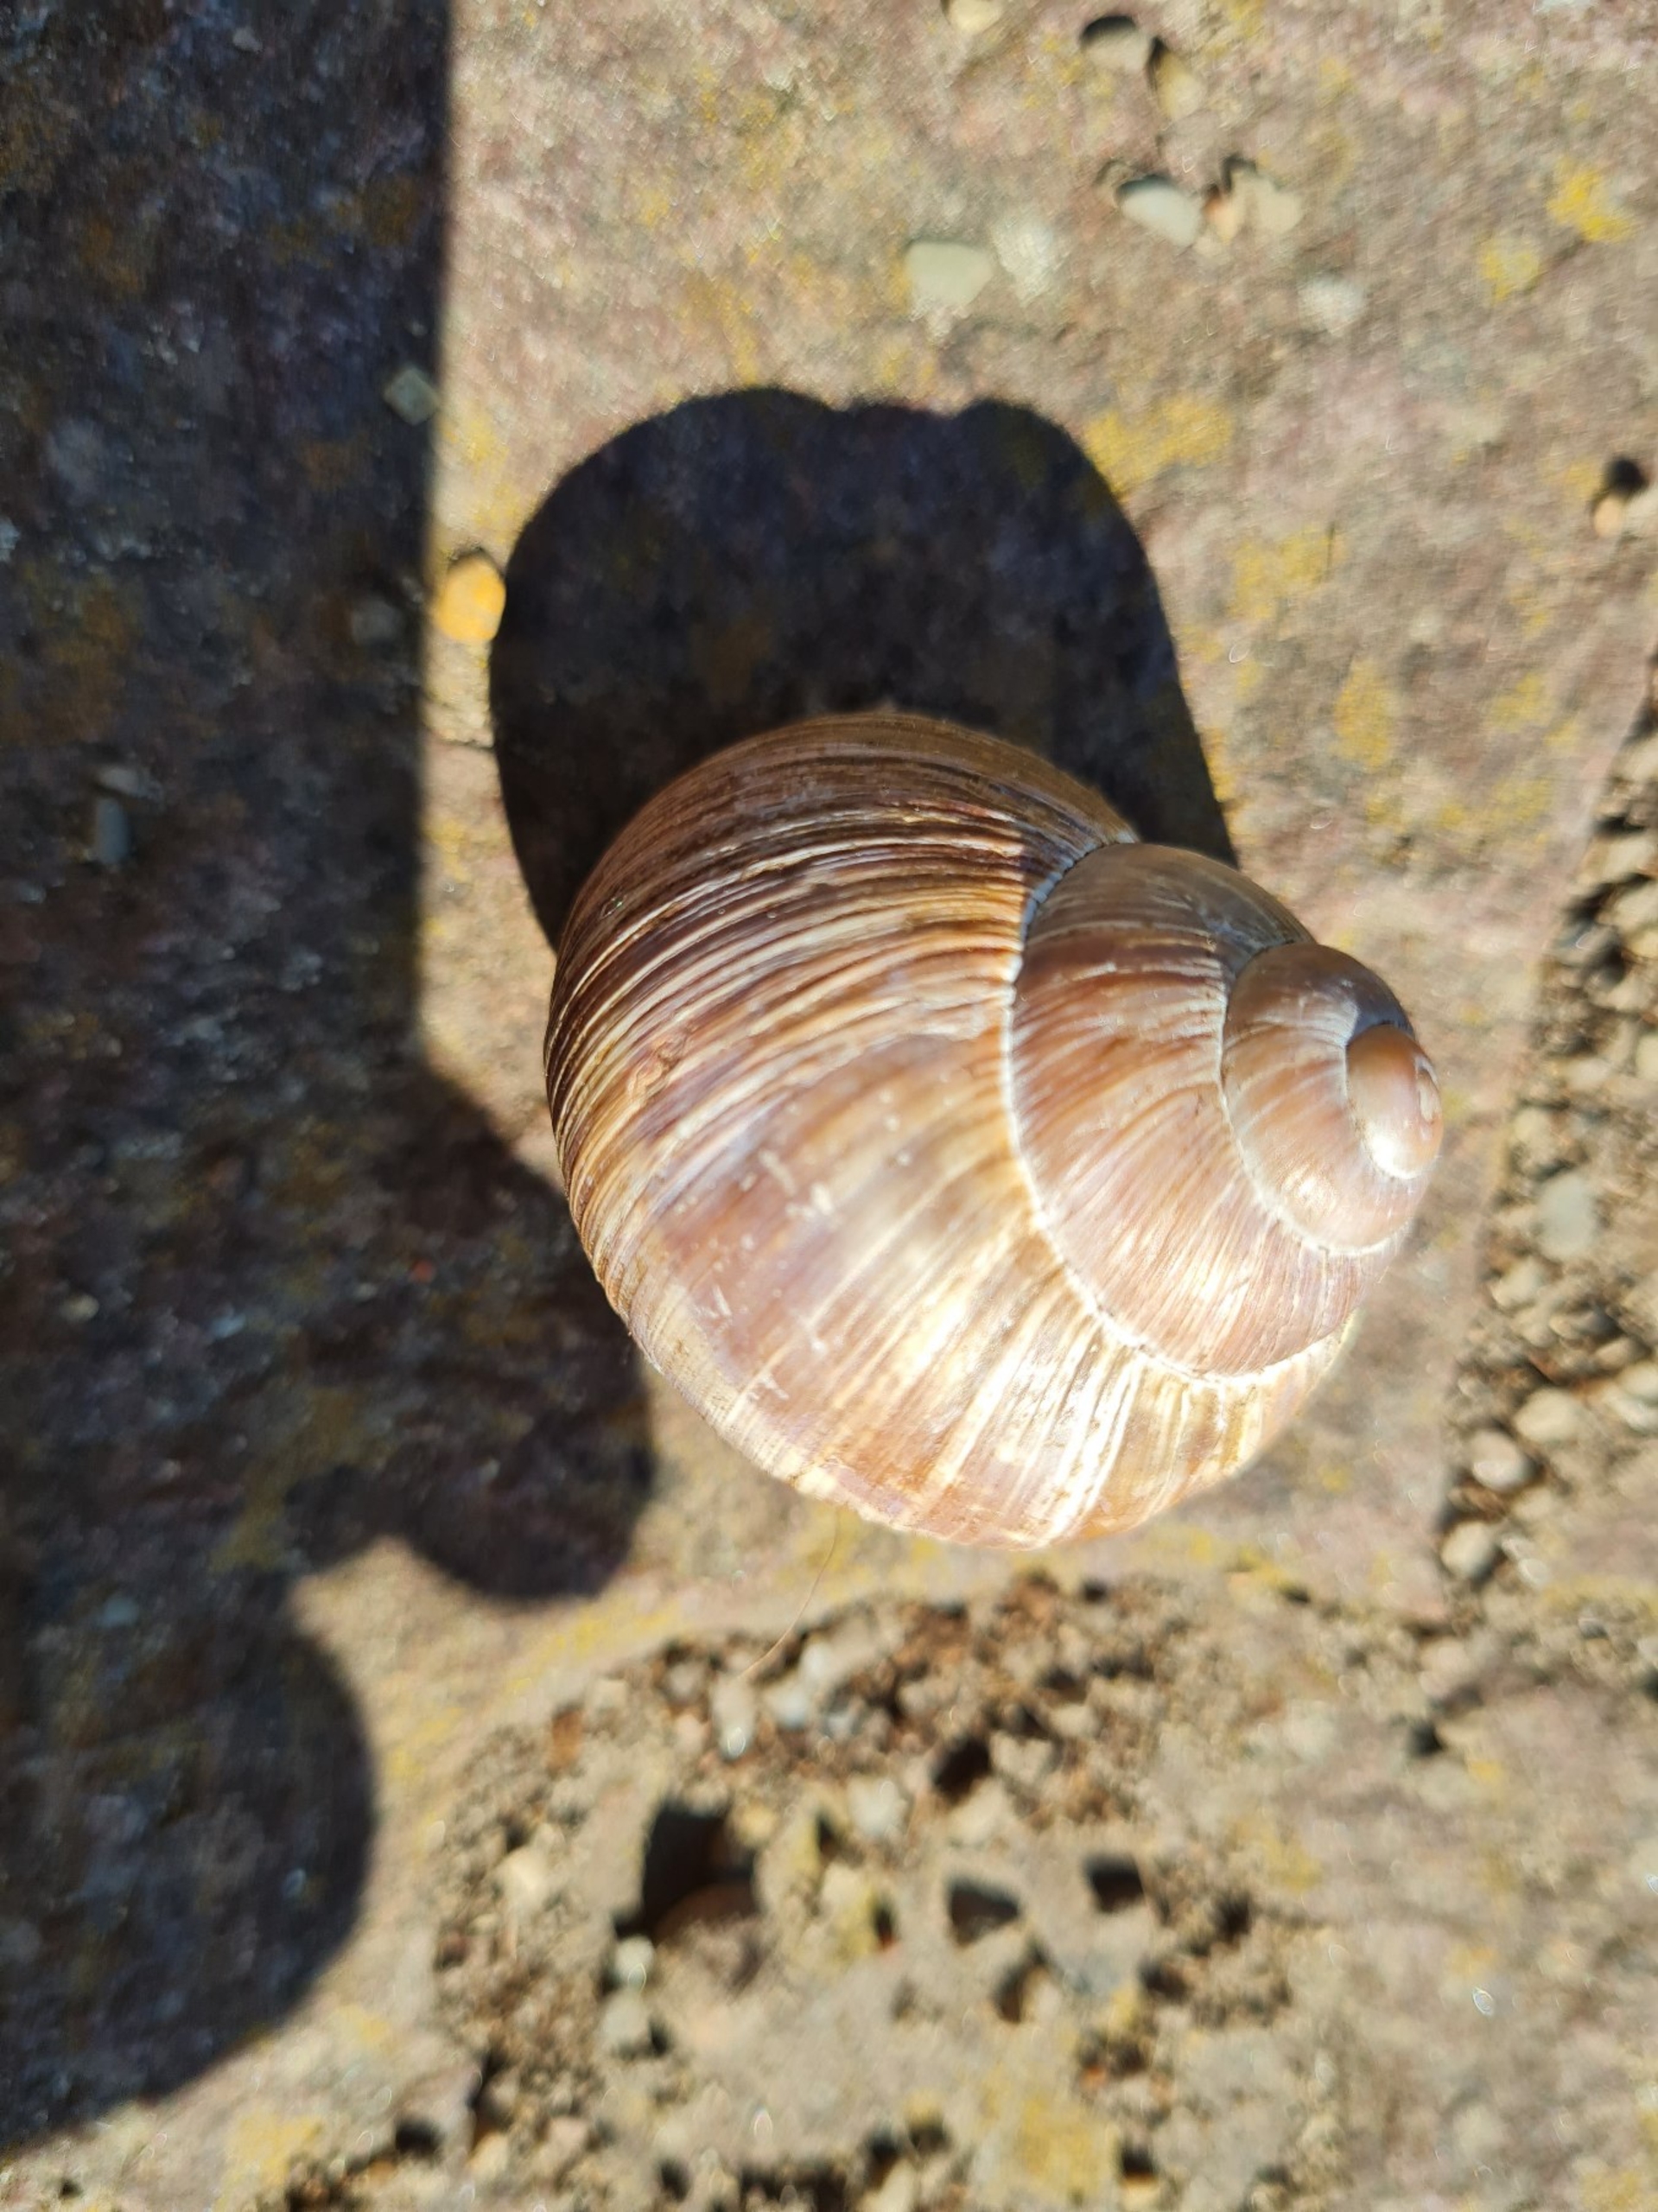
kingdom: Animalia
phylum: Mollusca
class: Gastropoda
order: Stylommatophora
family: Helicidae
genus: Helix
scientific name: Helix pomatia
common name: Vinbjergsnegl
